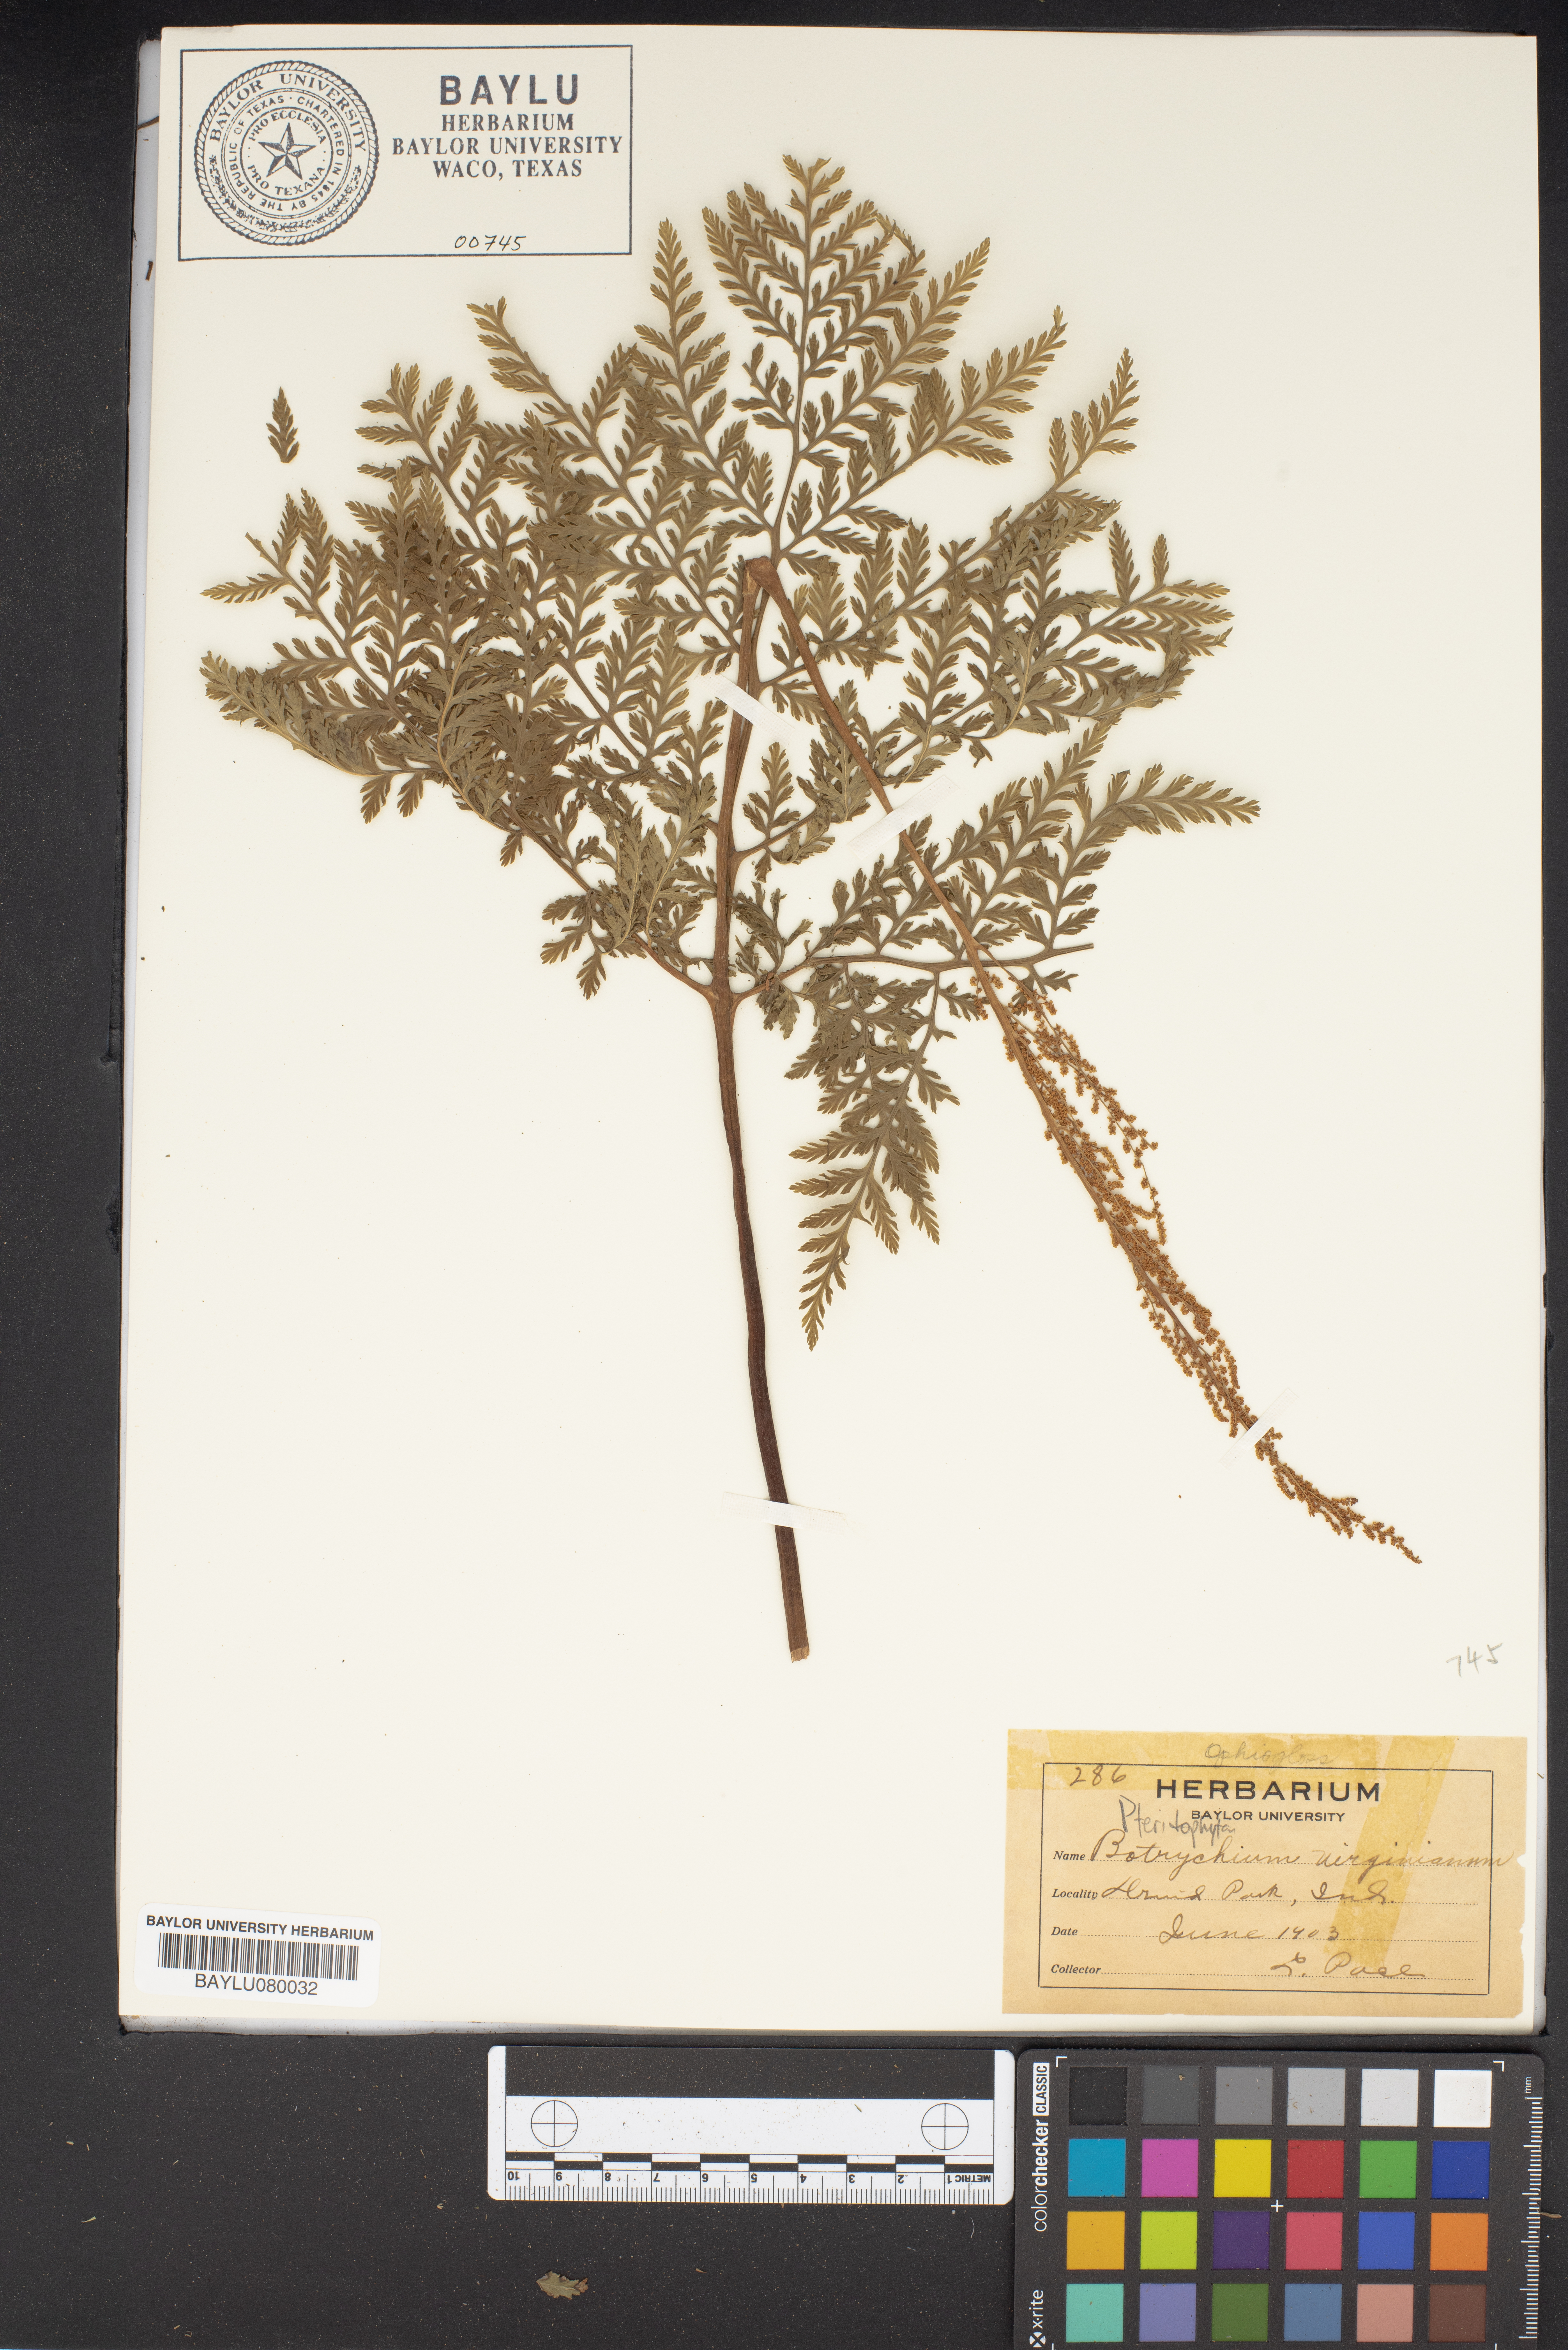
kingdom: Plantae
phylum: Tracheophyta
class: Polypodiopsida
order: Ophioglossales
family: Ophioglossaceae
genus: Botrypus
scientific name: Botrypus virginianus
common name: Common grapefern
